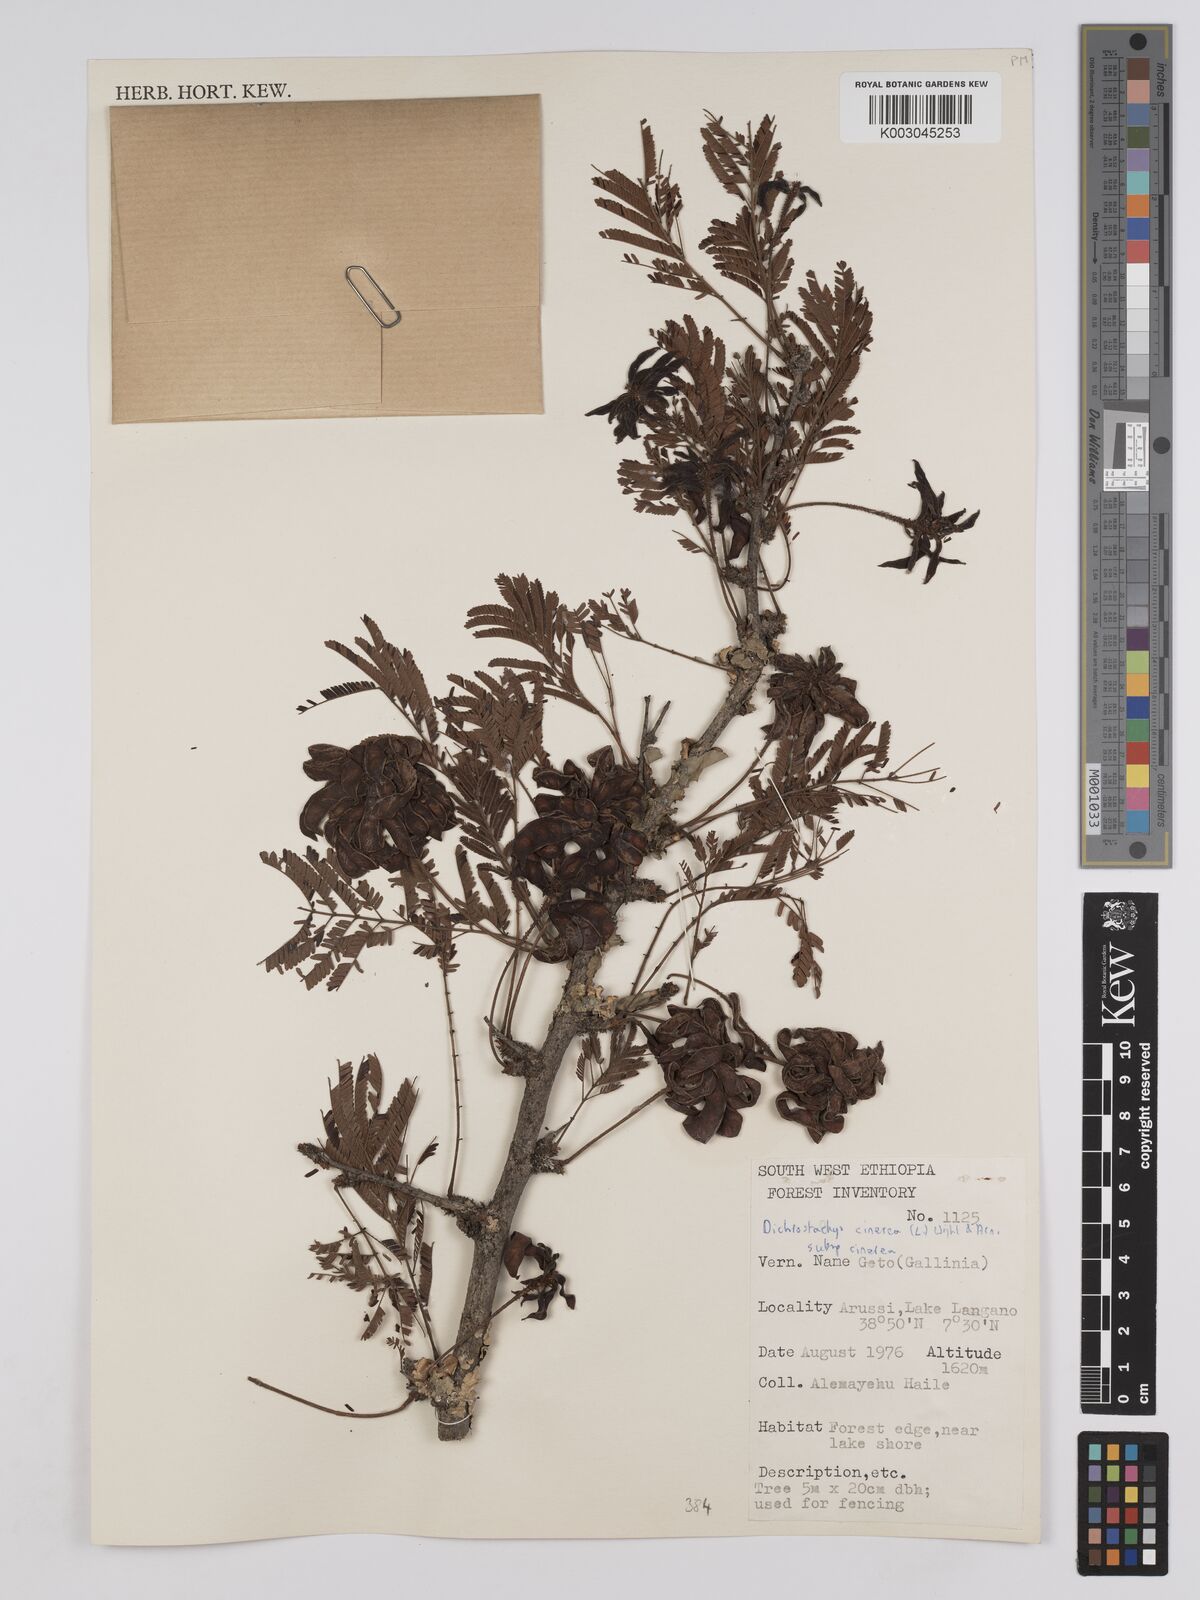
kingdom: Plantae
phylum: Tracheophyta
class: Magnoliopsida
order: Fabales
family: Fabaceae
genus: Dichrostachys
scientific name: Dichrostachys cinerea
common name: Sicklebush
